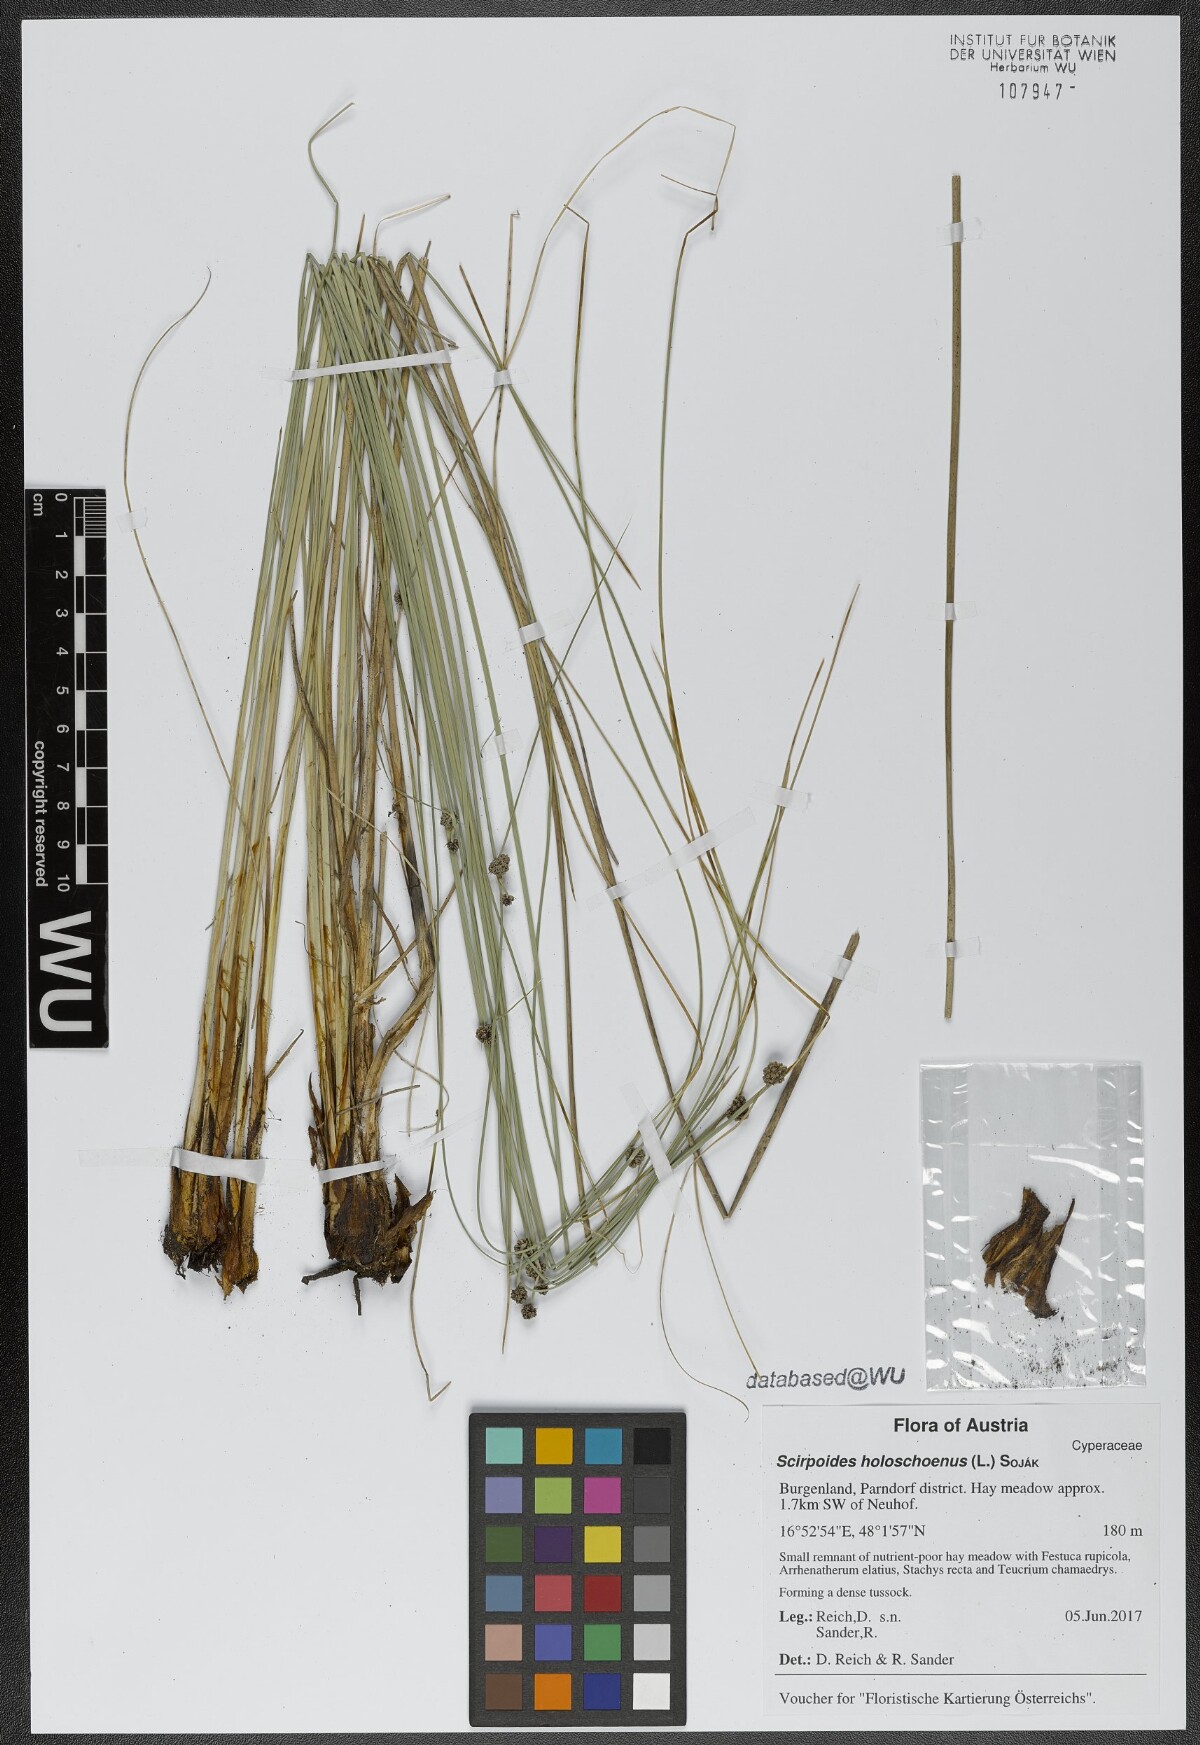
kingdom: Plantae
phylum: Tracheophyta
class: Liliopsida
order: Poales
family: Cyperaceae
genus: Scirpoides
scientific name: Scirpoides holoschoenus
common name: Round-headed club-rush
